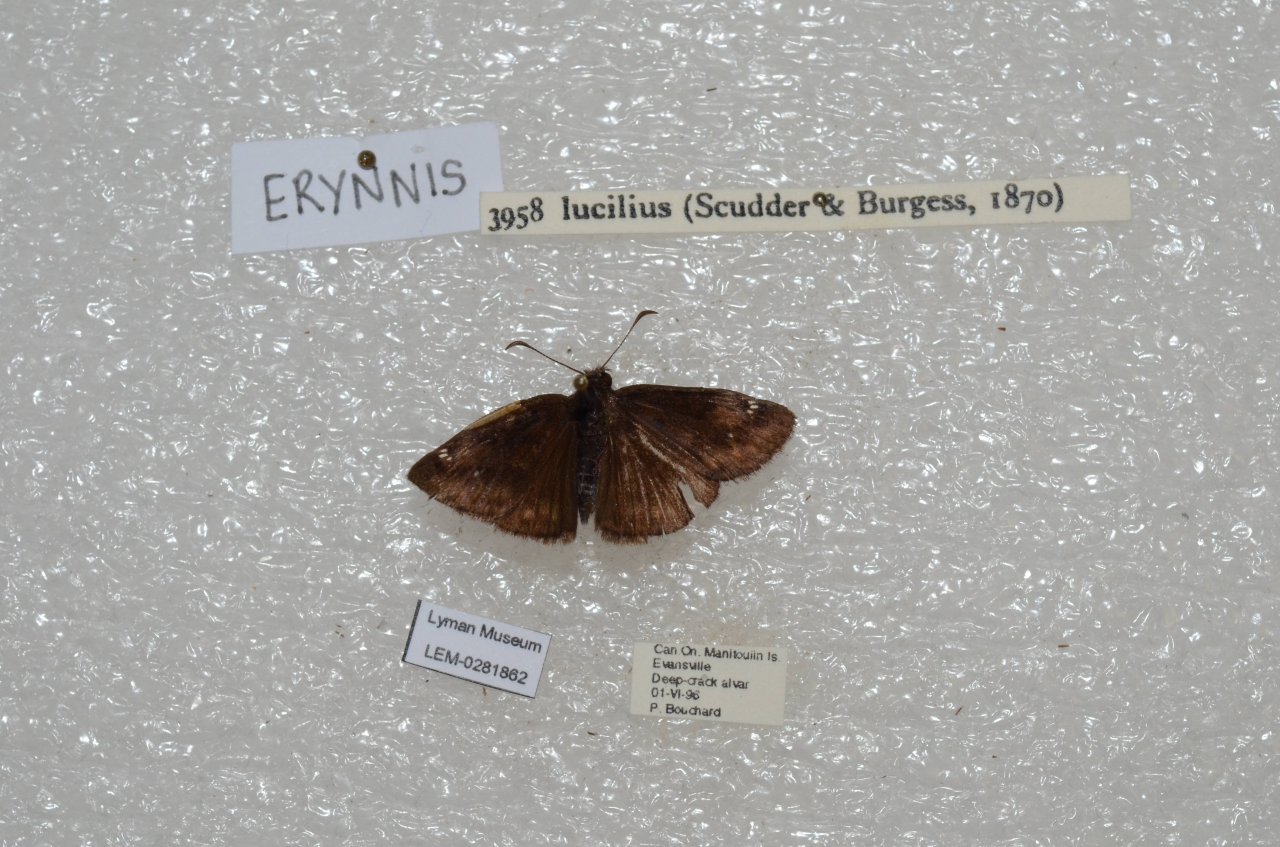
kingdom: Animalia
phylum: Arthropoda
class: Insecta
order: Lepidoptera
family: Hesperiidae
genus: Gesta
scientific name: Gesta
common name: Columbine Duskywing
